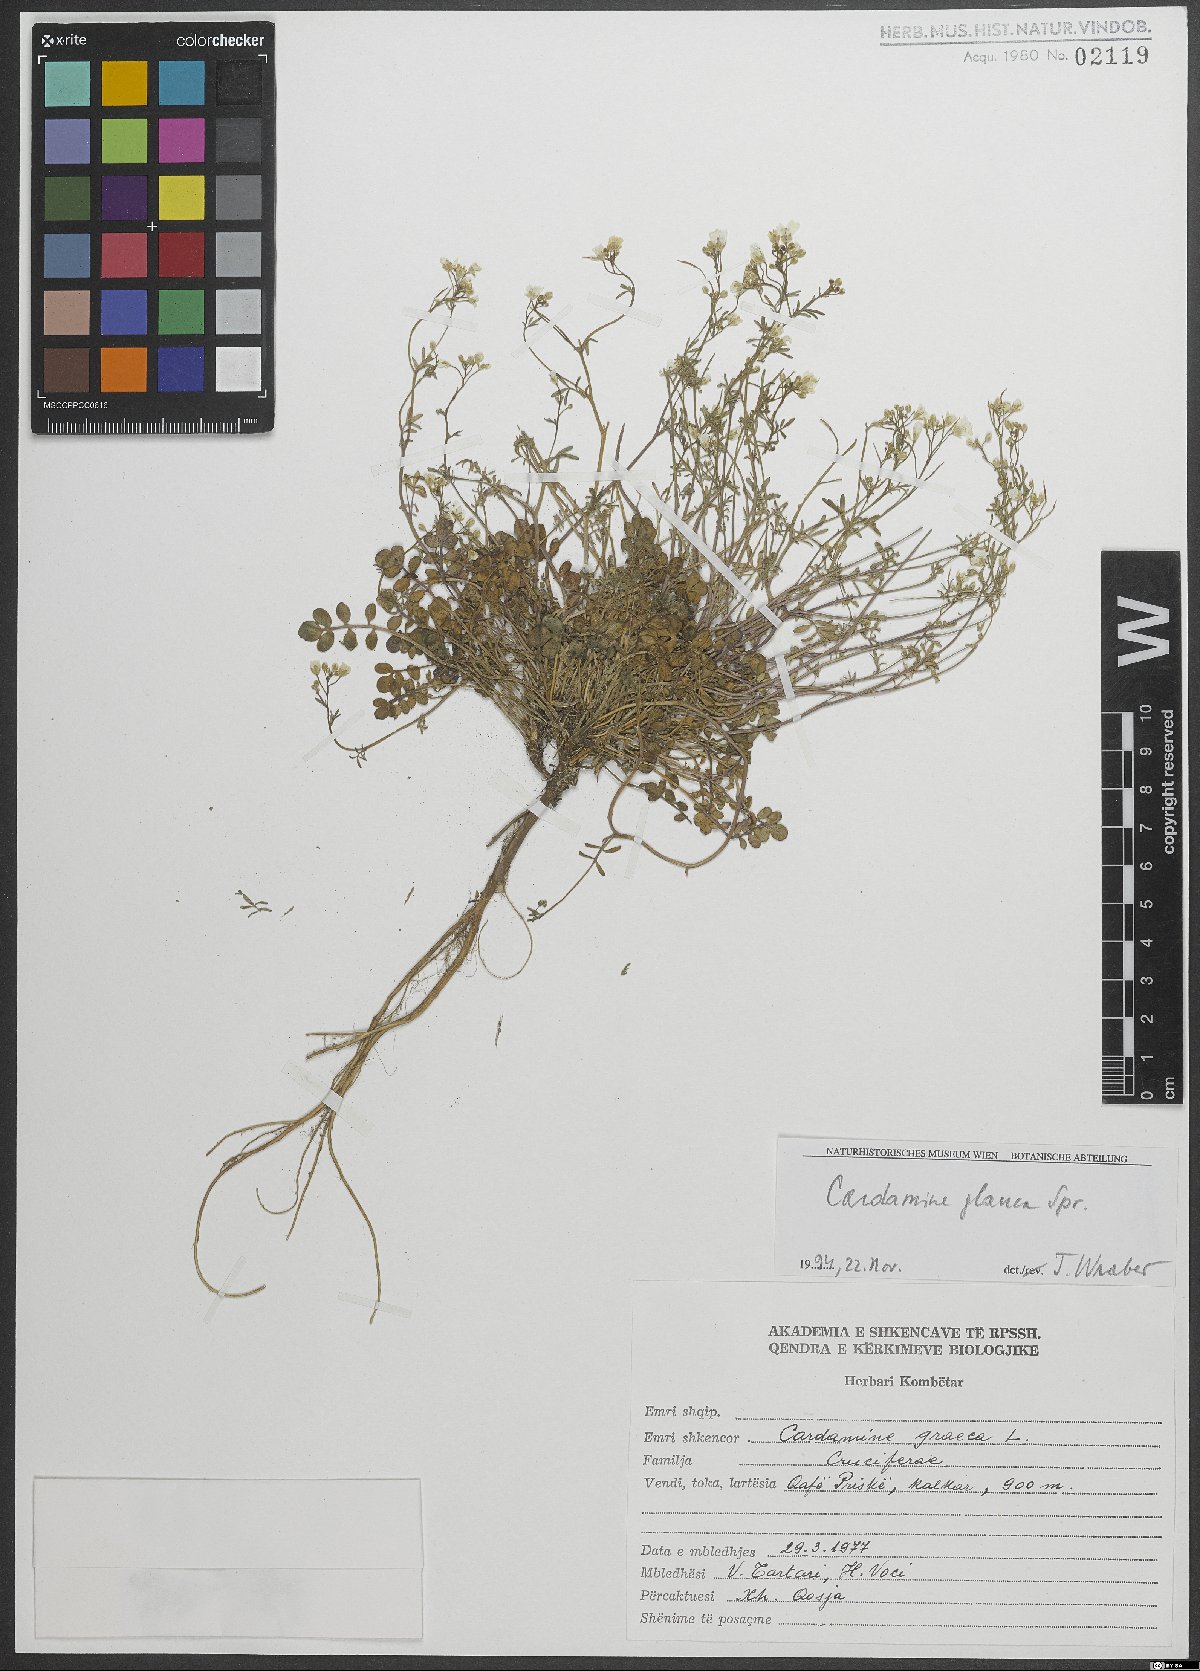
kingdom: Plantae
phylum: Tracheophyta
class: Magnoliopsida
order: Brassicales
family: Brassicaceae
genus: Cardamine
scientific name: Cardamine glauca
